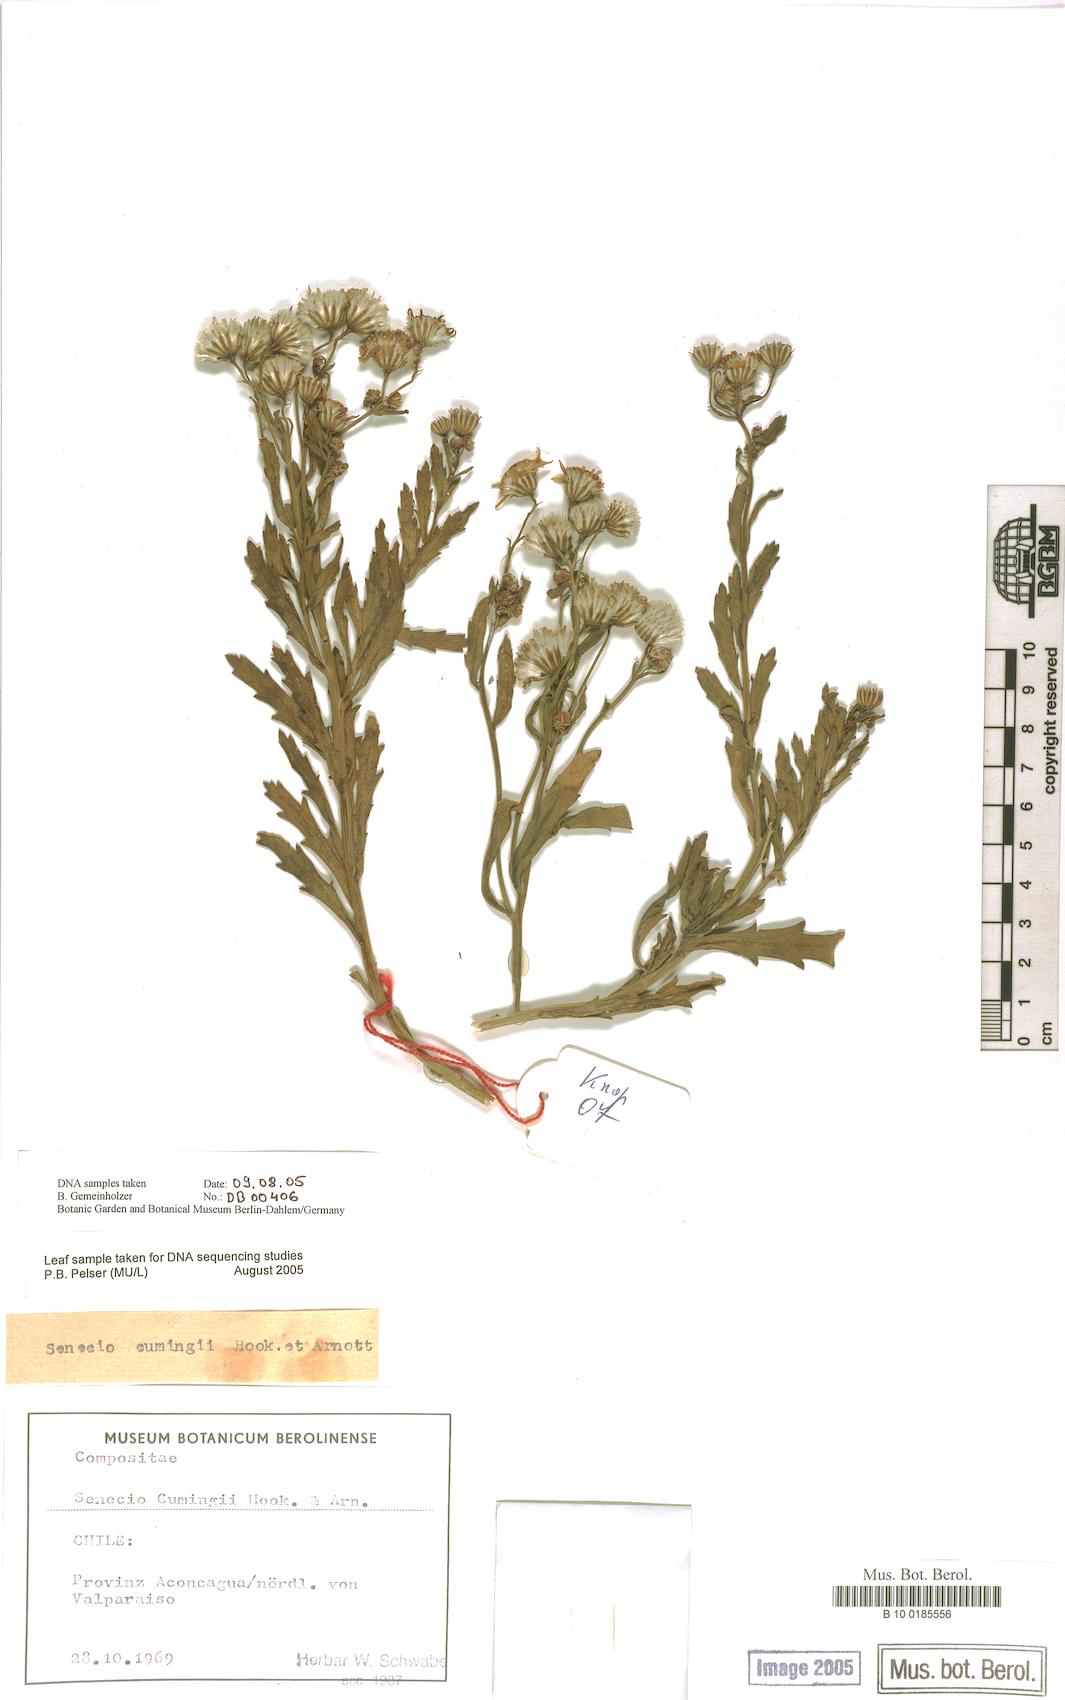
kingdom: Plantae
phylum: Tracheophyta
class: Magnoliopsida
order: Asterales
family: Asteraceae
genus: Senecio
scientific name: Senecio cumingii
